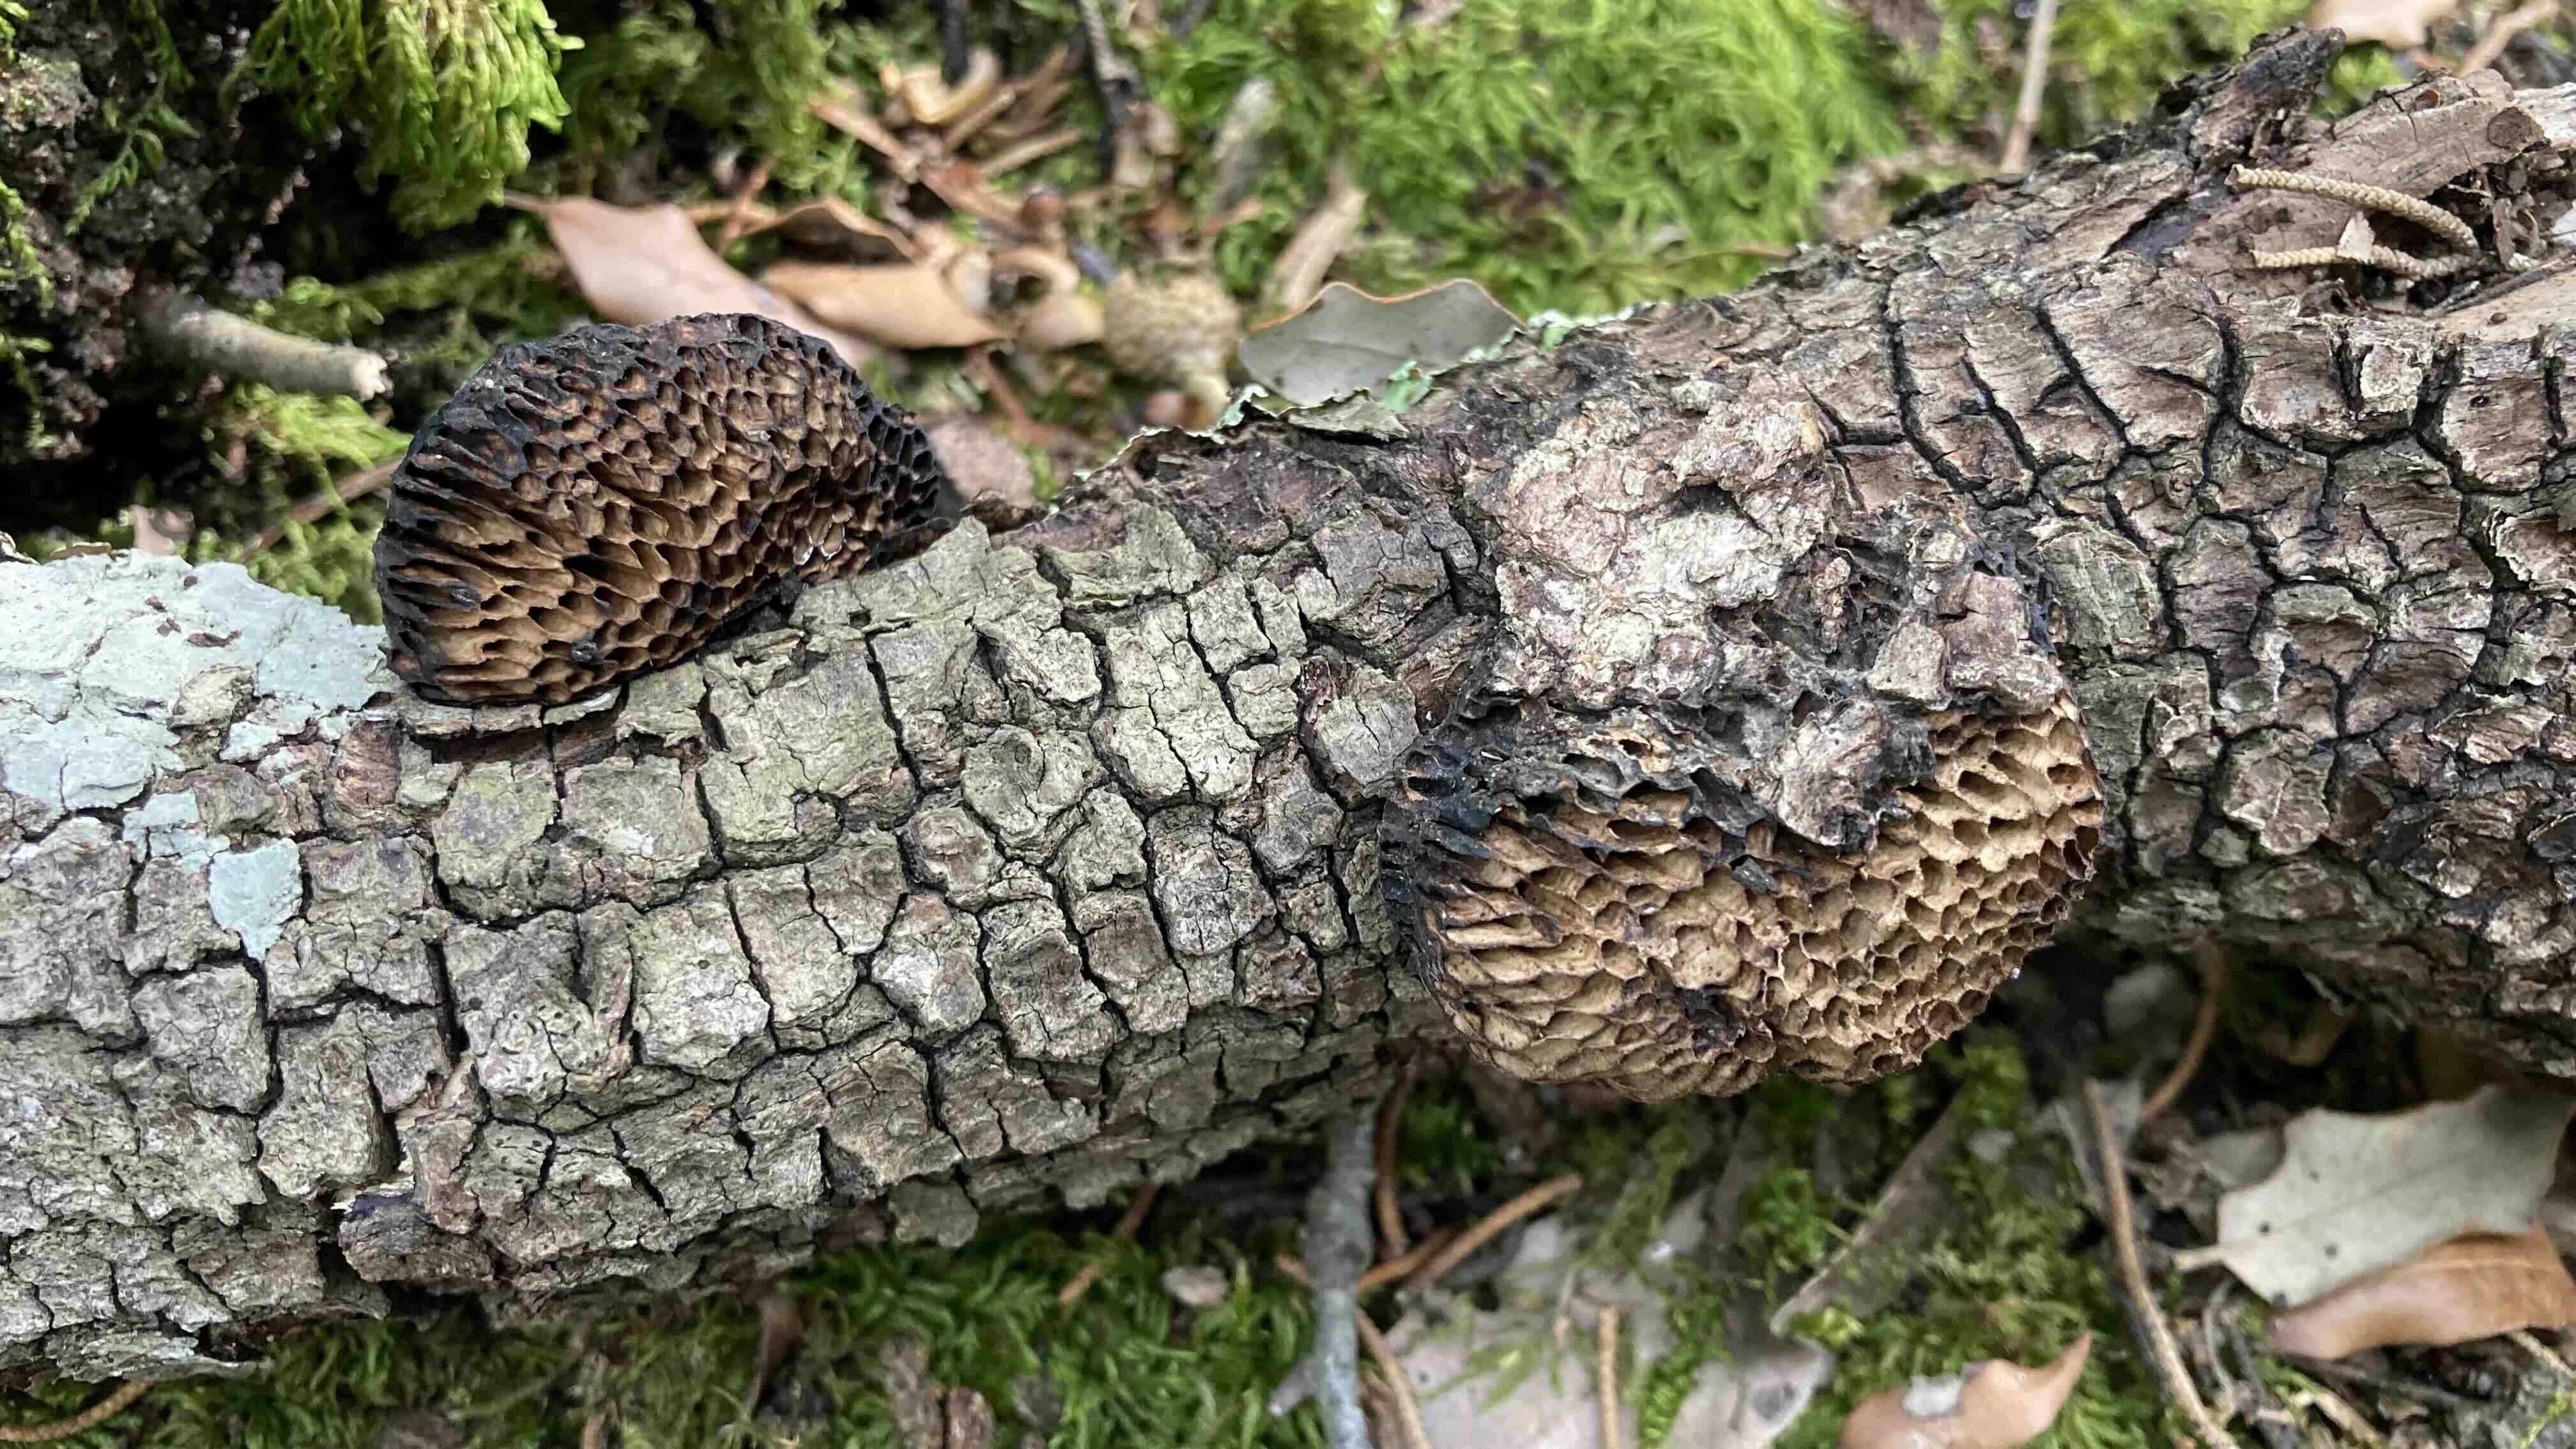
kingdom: Fungi
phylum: Basidiomycota
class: Agaricomycetes
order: Polyporales
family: Polyporaceae
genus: Daedaleopsis
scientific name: Daedaleopsis nitida
